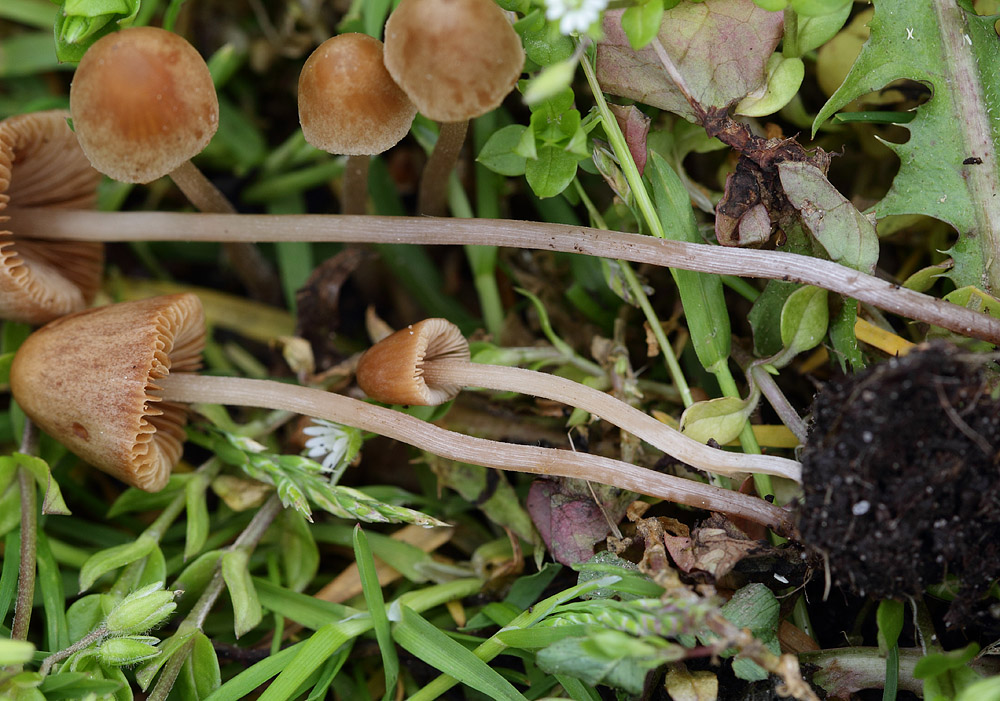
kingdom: Fungi
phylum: Basidiomycota
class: Agaricomycetes
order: Agaricales
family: Bolbitiaceae
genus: Conocybe
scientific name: Conocybe siliginea
